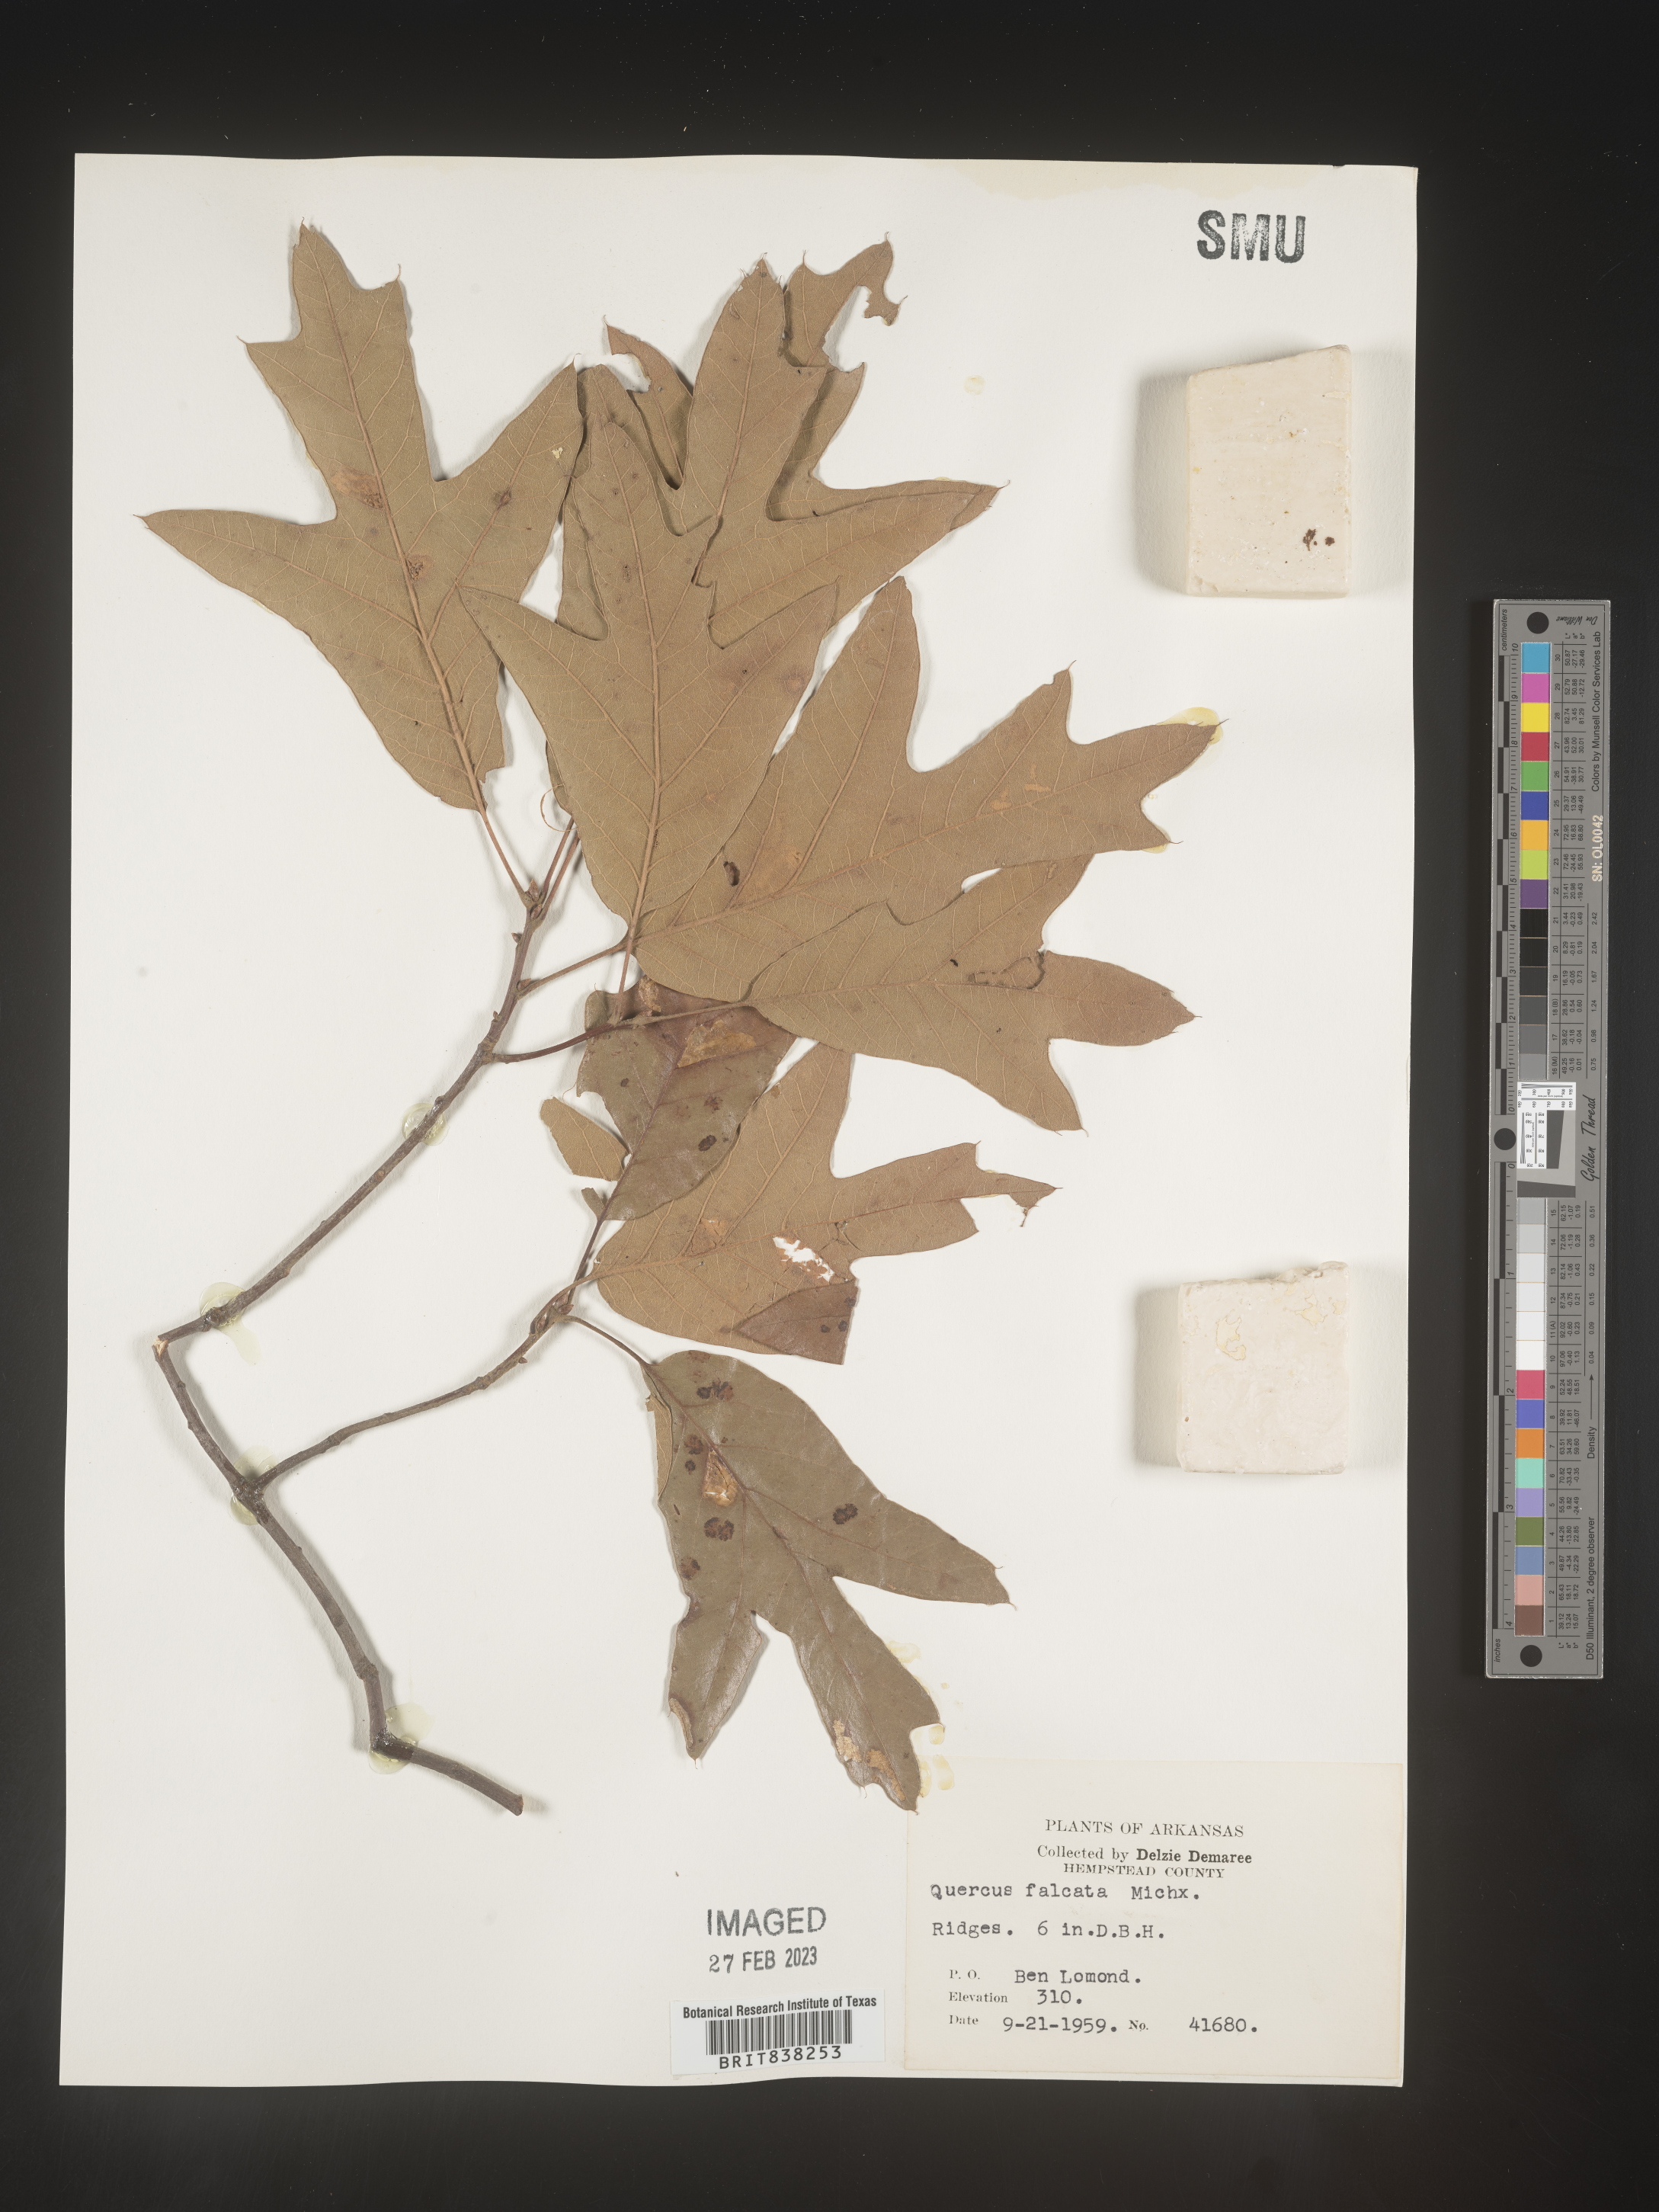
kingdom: Plantae
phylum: Tracheophyta
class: Magnoliopsida
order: Fagales
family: Fagaceae
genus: Quercus
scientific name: Quercus falcata
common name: Southern red oak
